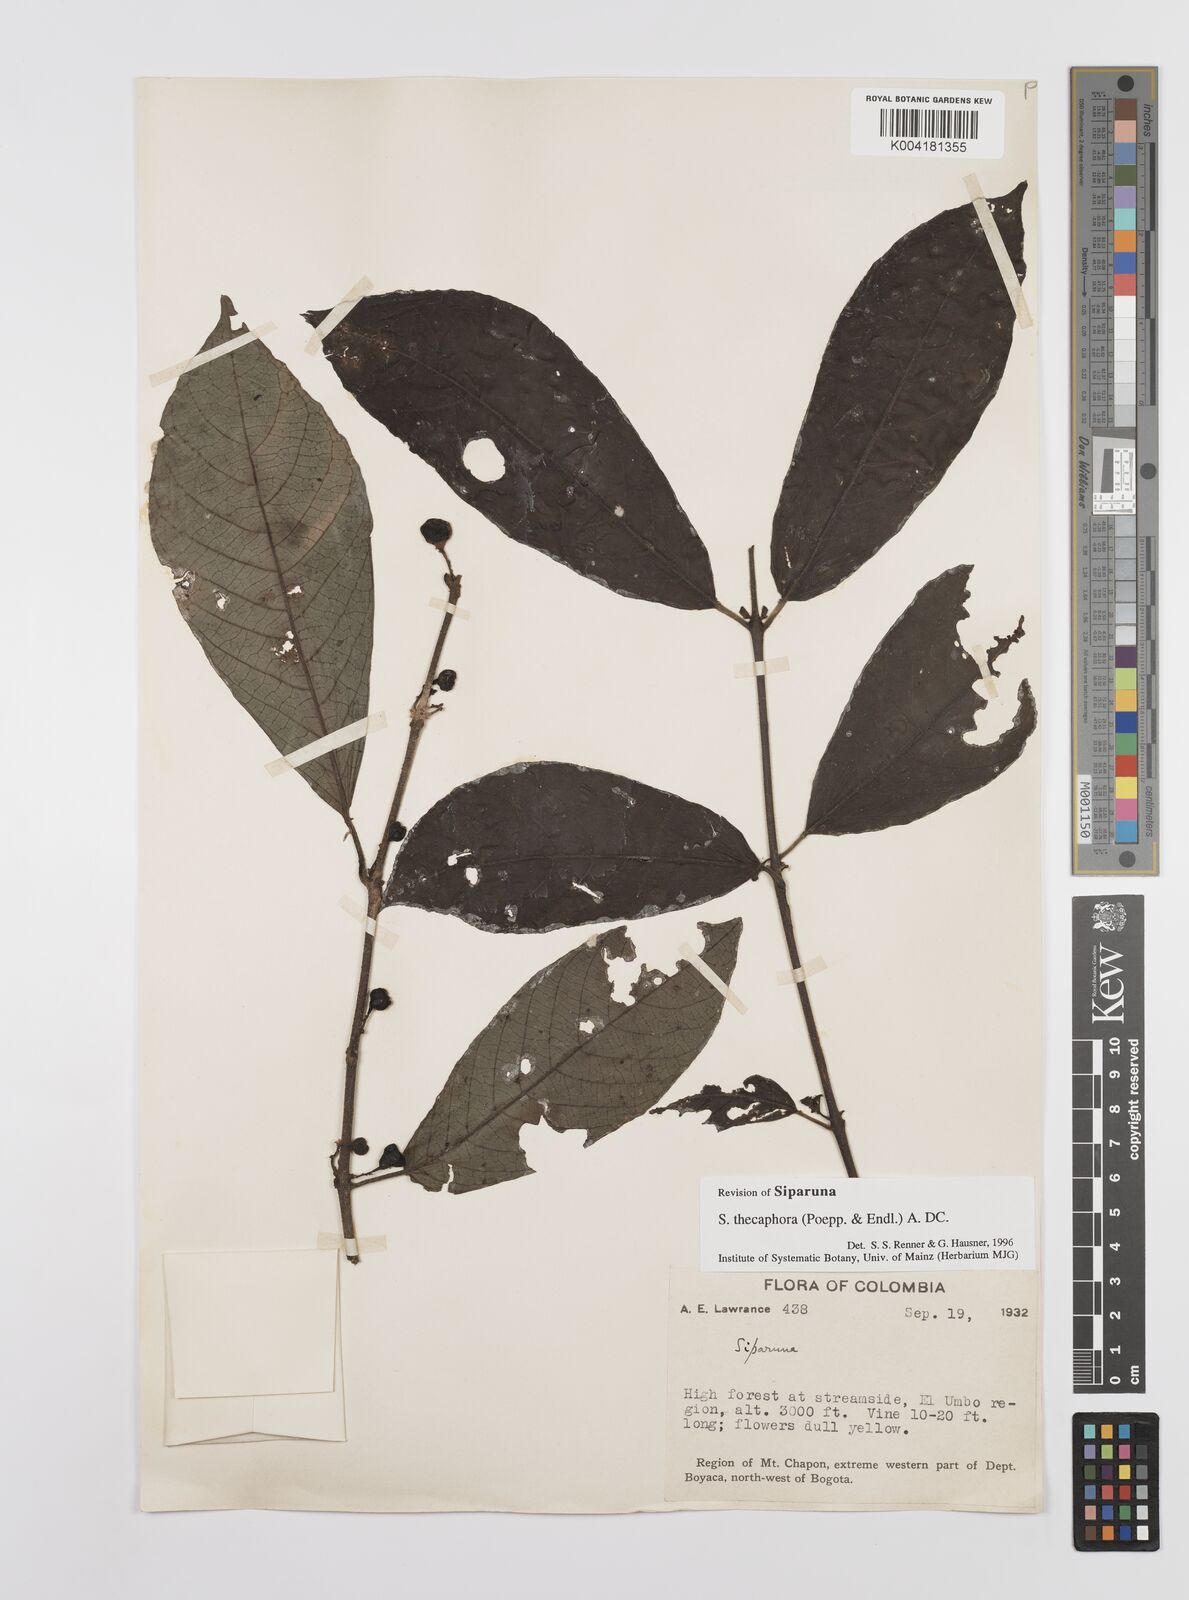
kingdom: Plantae
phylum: Tracheophyta
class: Magnoliopsida
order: Laurales
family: Siparunaceae
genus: Siparuna
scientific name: Siparuna thecaphora
